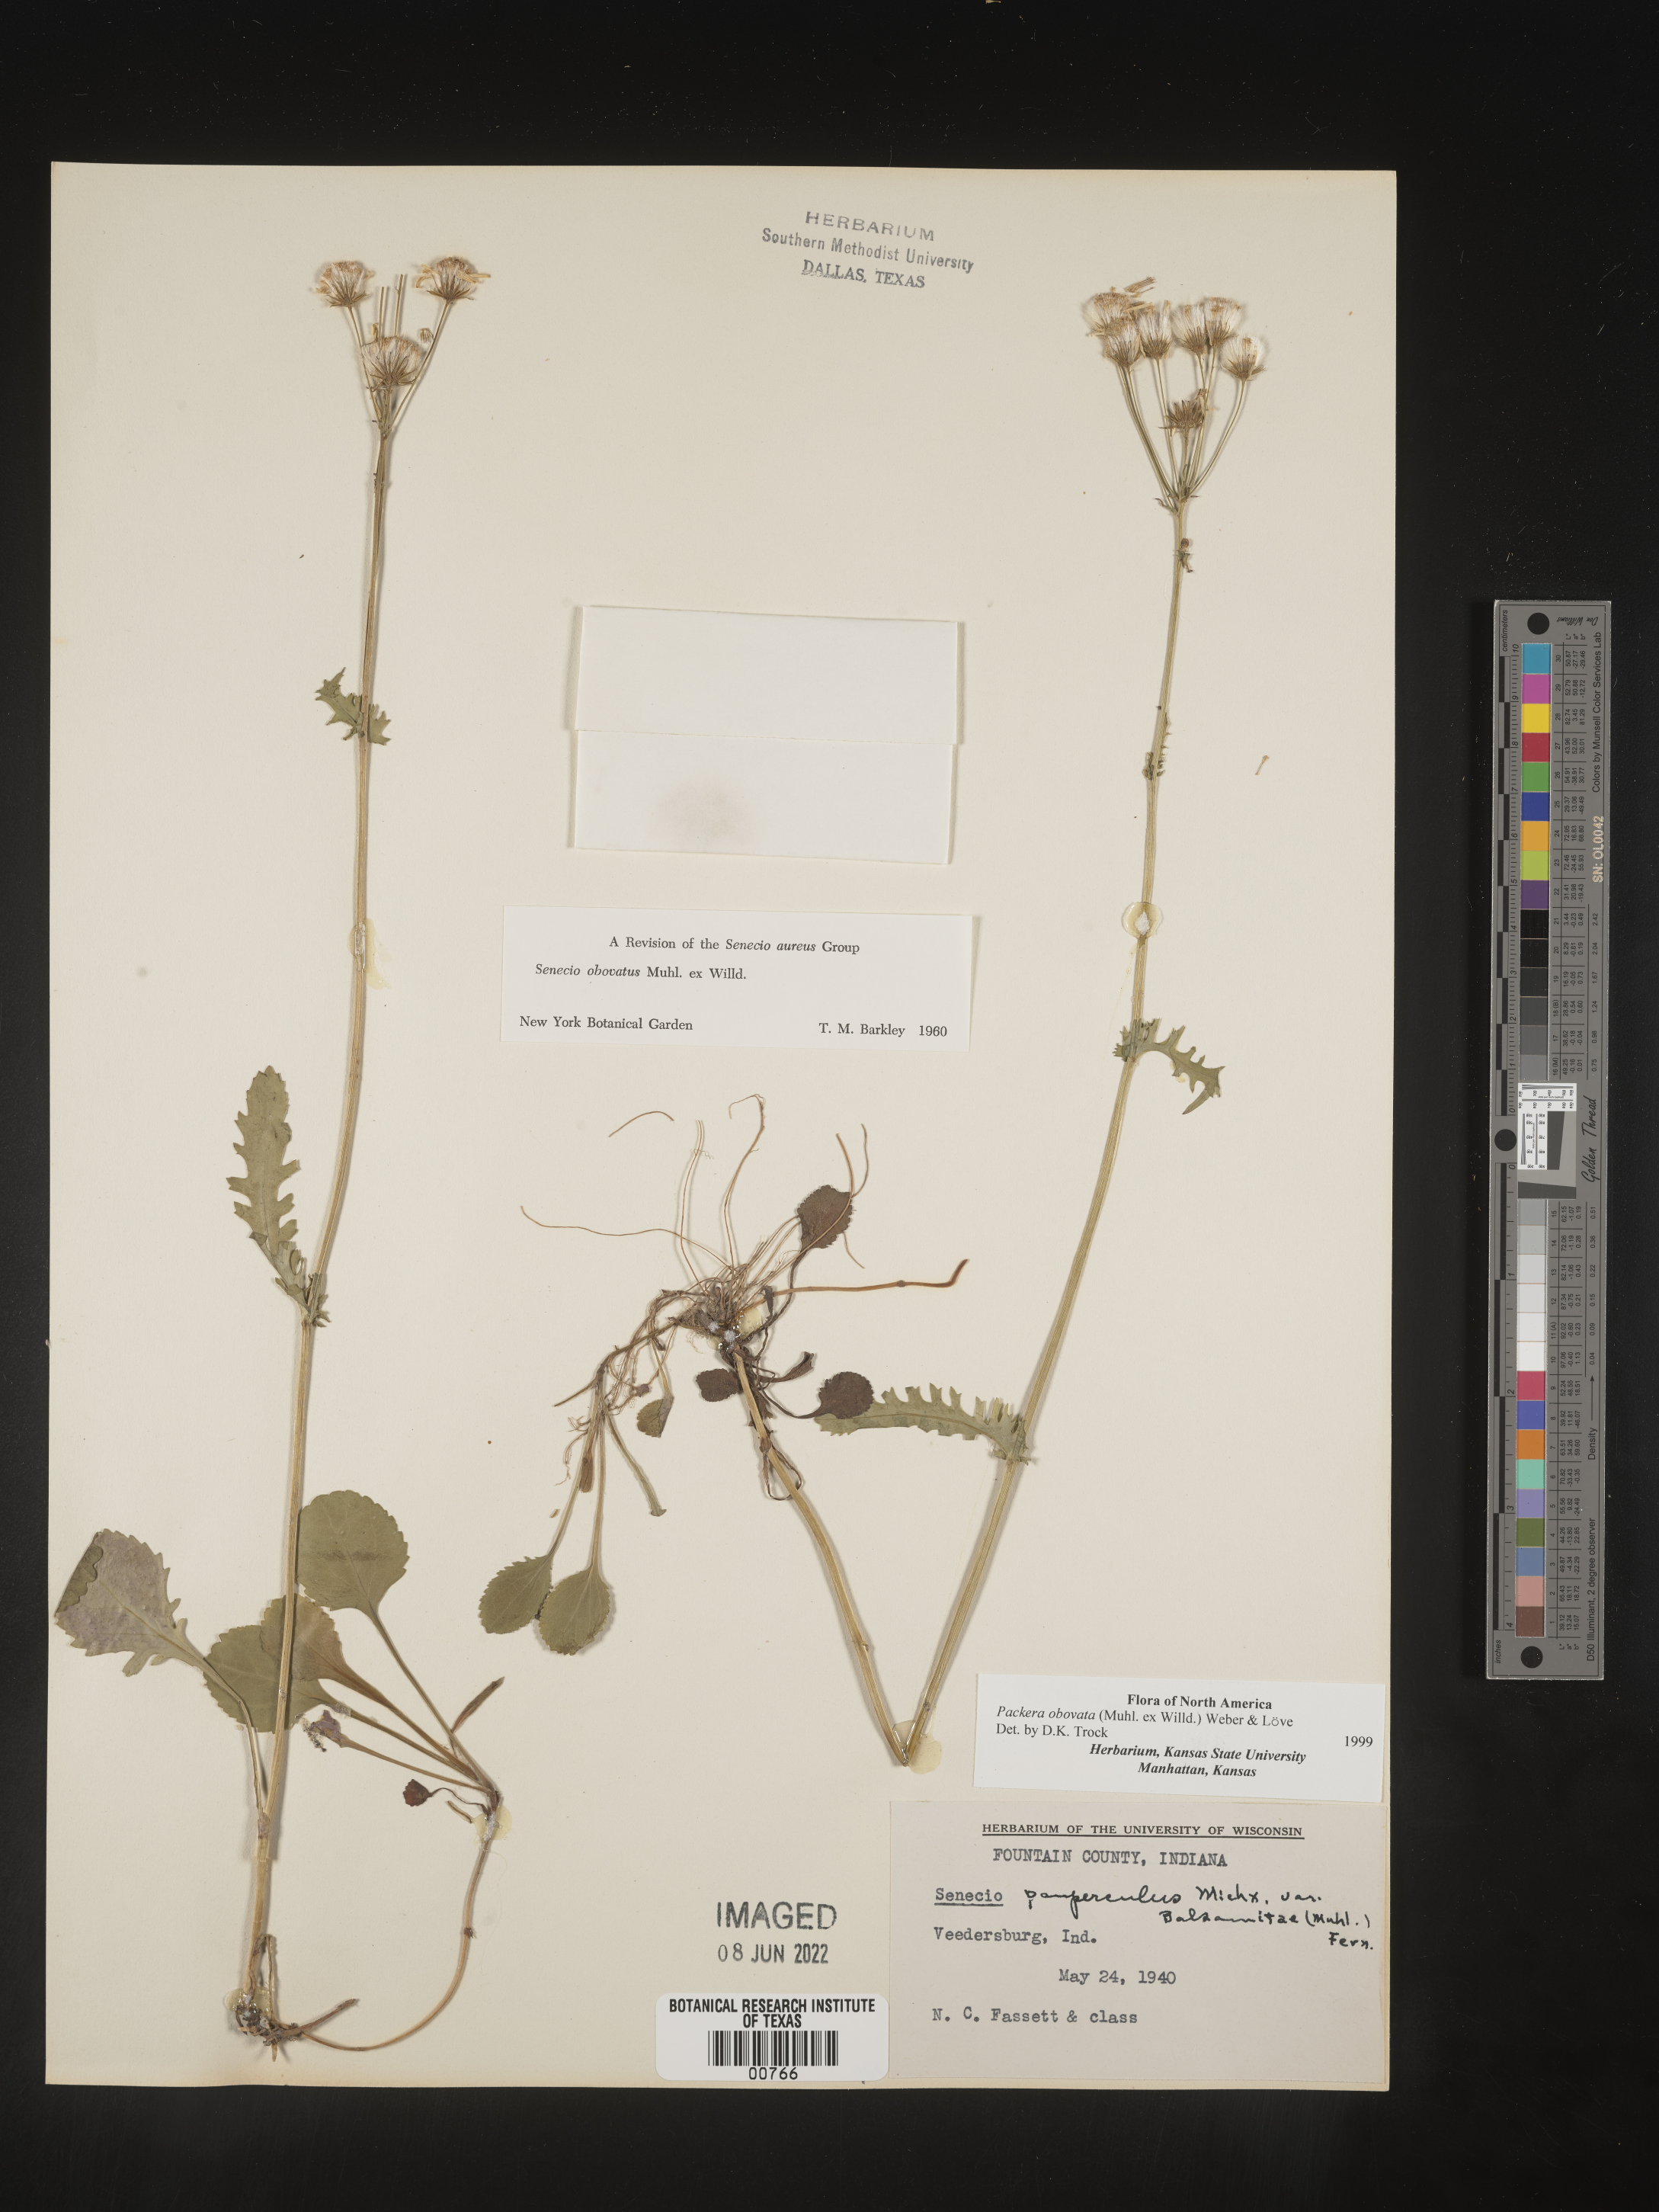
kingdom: Plantae
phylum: Tracheophyta
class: Magnoliopsida
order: Asterales
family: Asteraceae
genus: Packera
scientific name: Packera obovata
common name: Round-leaf ragwort
